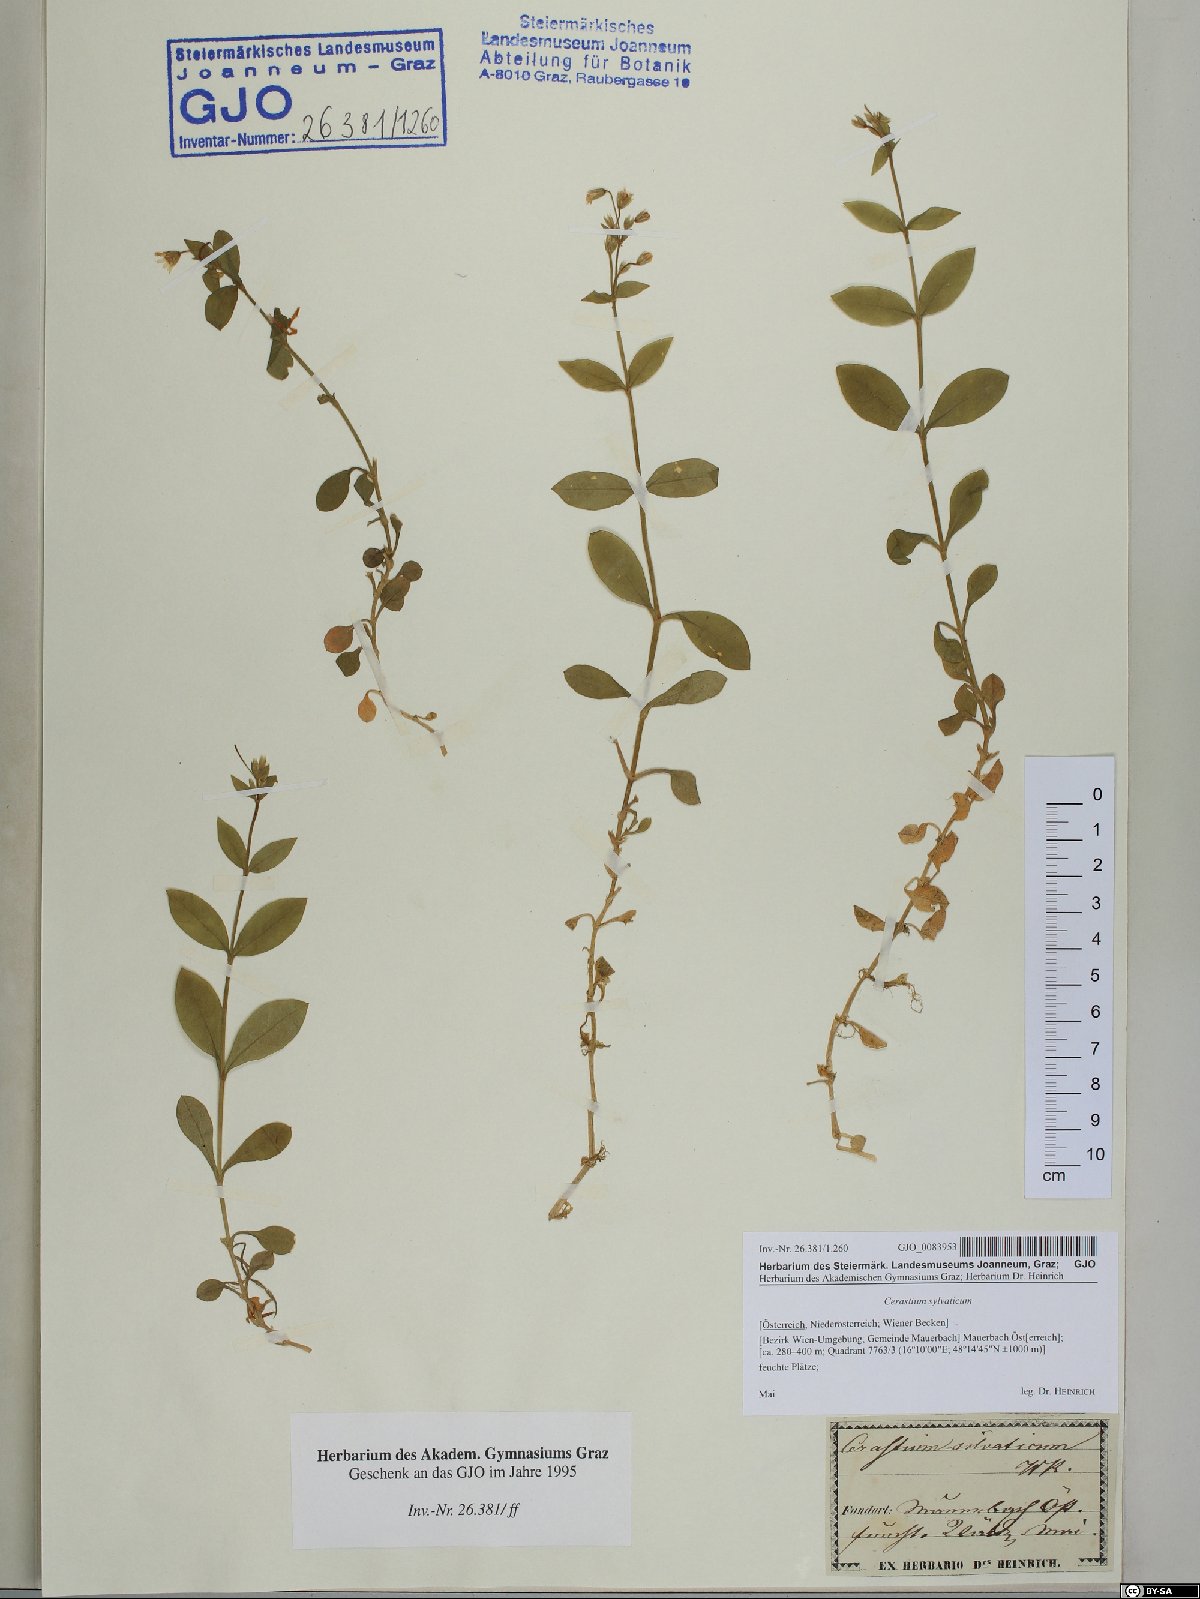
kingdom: Plantae
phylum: Tracheophyta
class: Magnoliopsida
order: Caryophyllales
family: Caryophyllaceae
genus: Cerastium
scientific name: Cerastium sylvaticum
